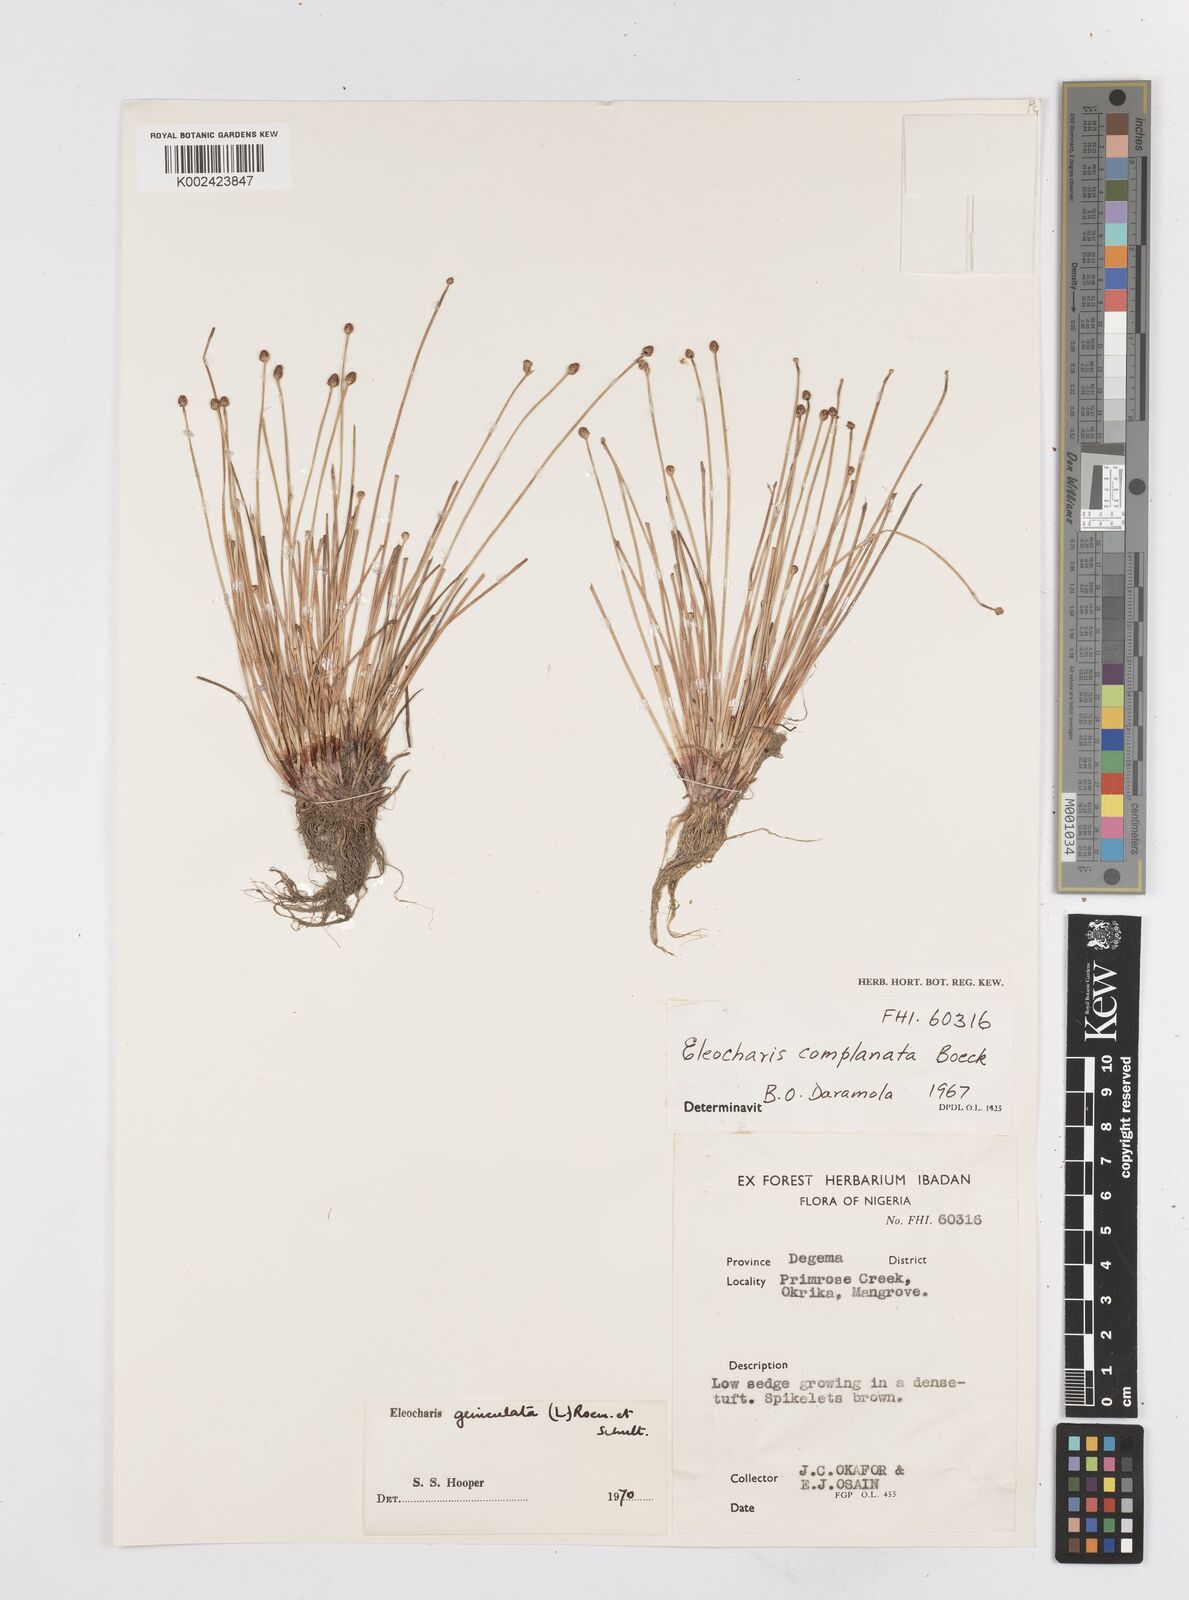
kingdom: Plantae
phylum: Tracheophyta
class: Liliopsida
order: Poales
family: Cyperaceae
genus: Eleocharis
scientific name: Eleocharis geniculata
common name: Canada spikesedge
